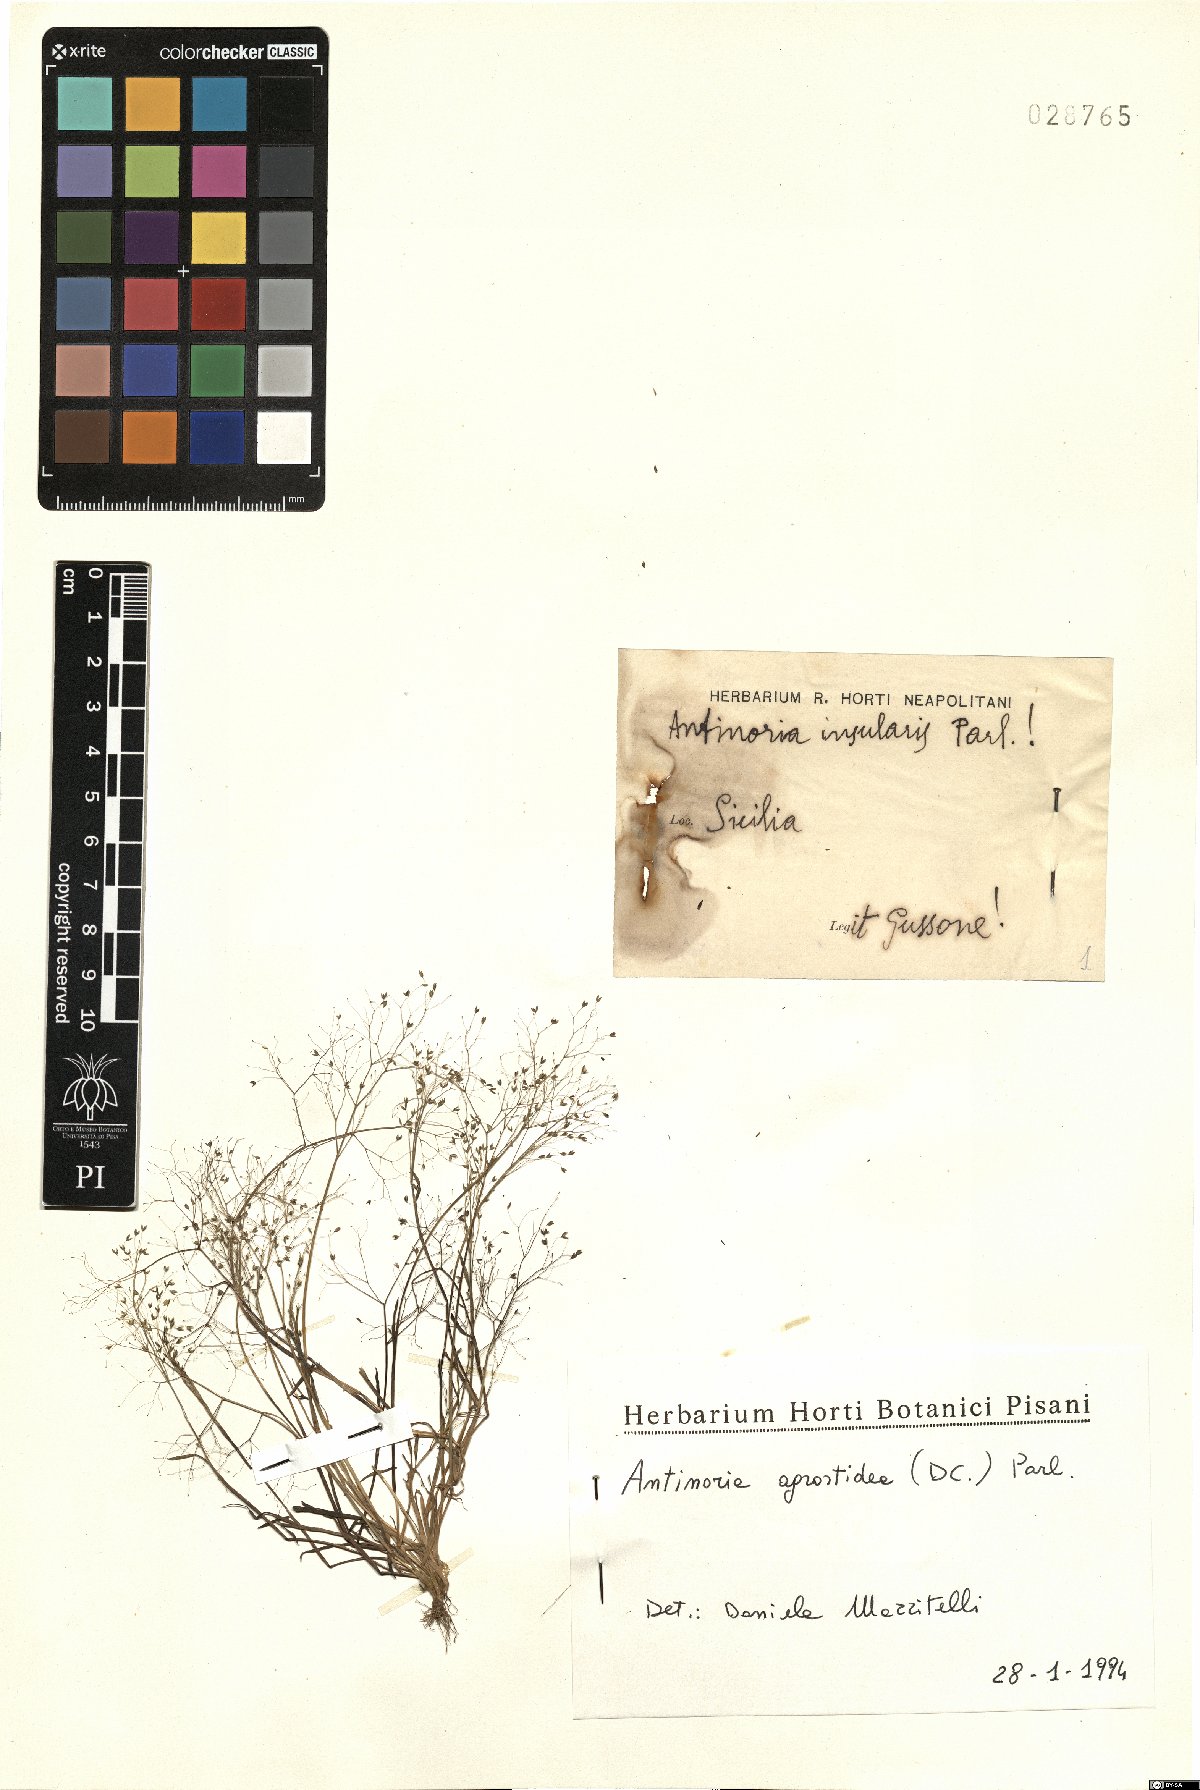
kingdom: Plantae
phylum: Tracheophyta
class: Liliopsida
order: Poales
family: Poaceae
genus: Antinoria
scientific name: Antinoria insularis
